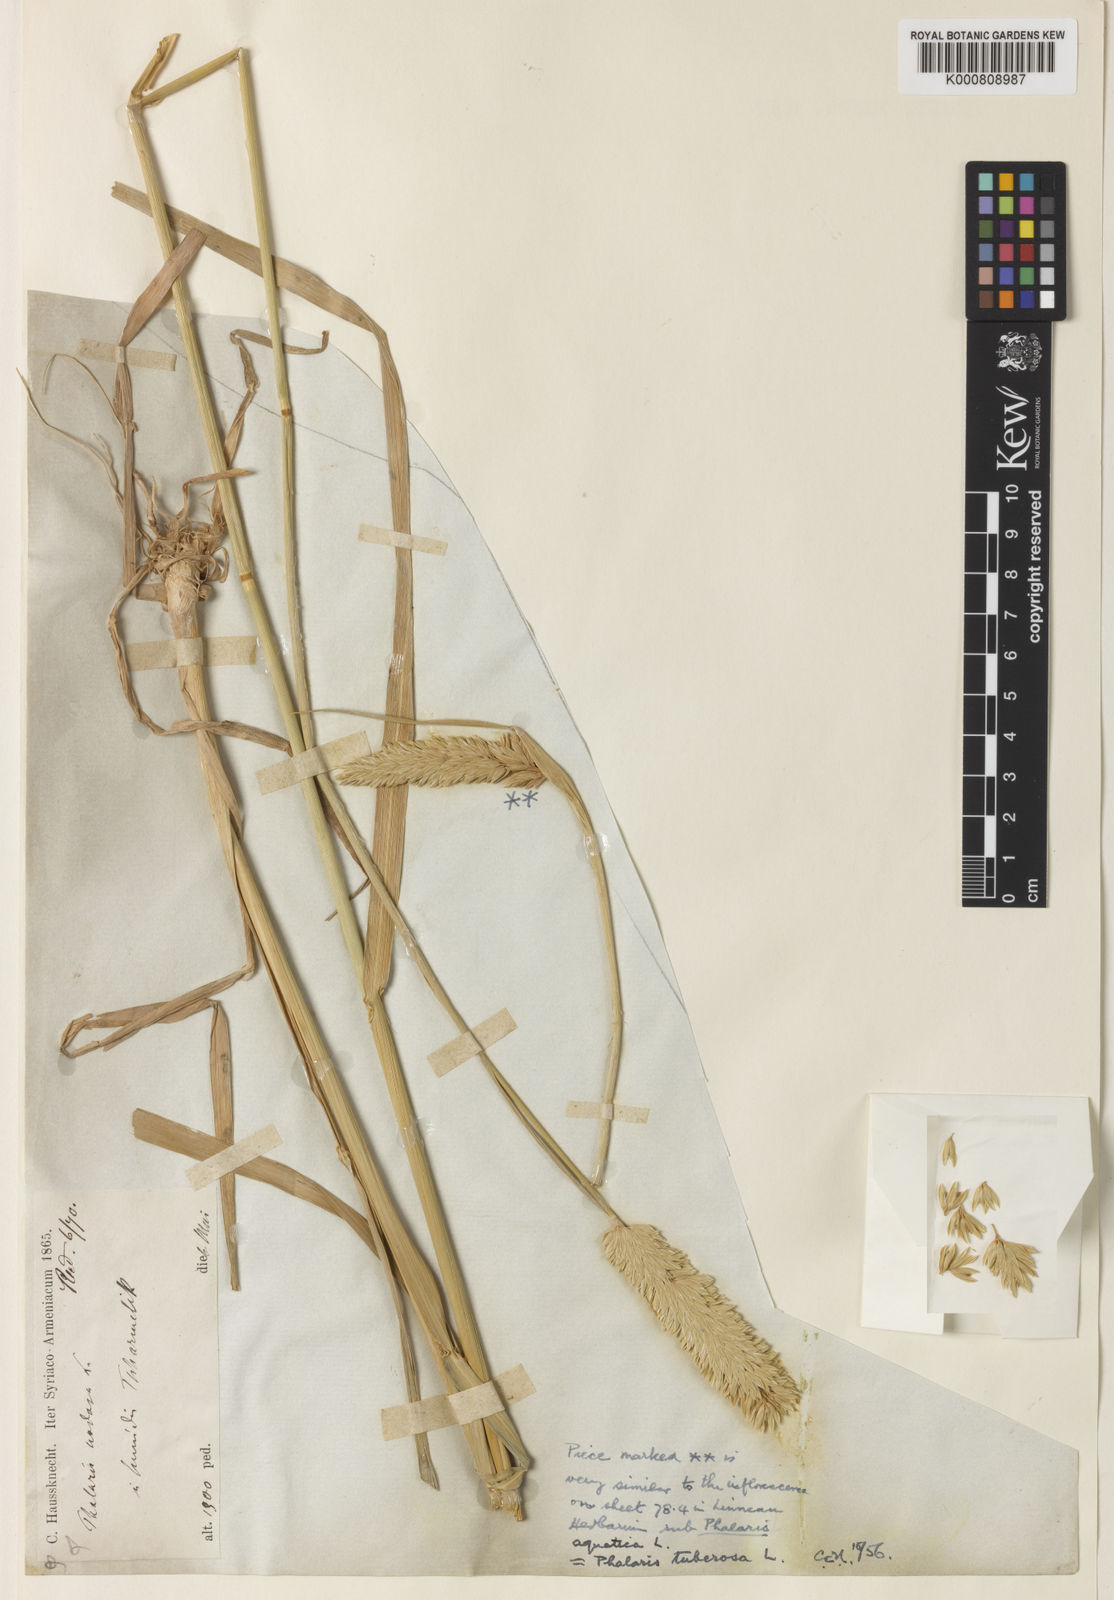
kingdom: Plantae
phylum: Tracheophyta
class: Liliopsida
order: Poales
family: Poaceae
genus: Phalaris
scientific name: Phalaris aquatica
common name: Bulbous canary-grass
